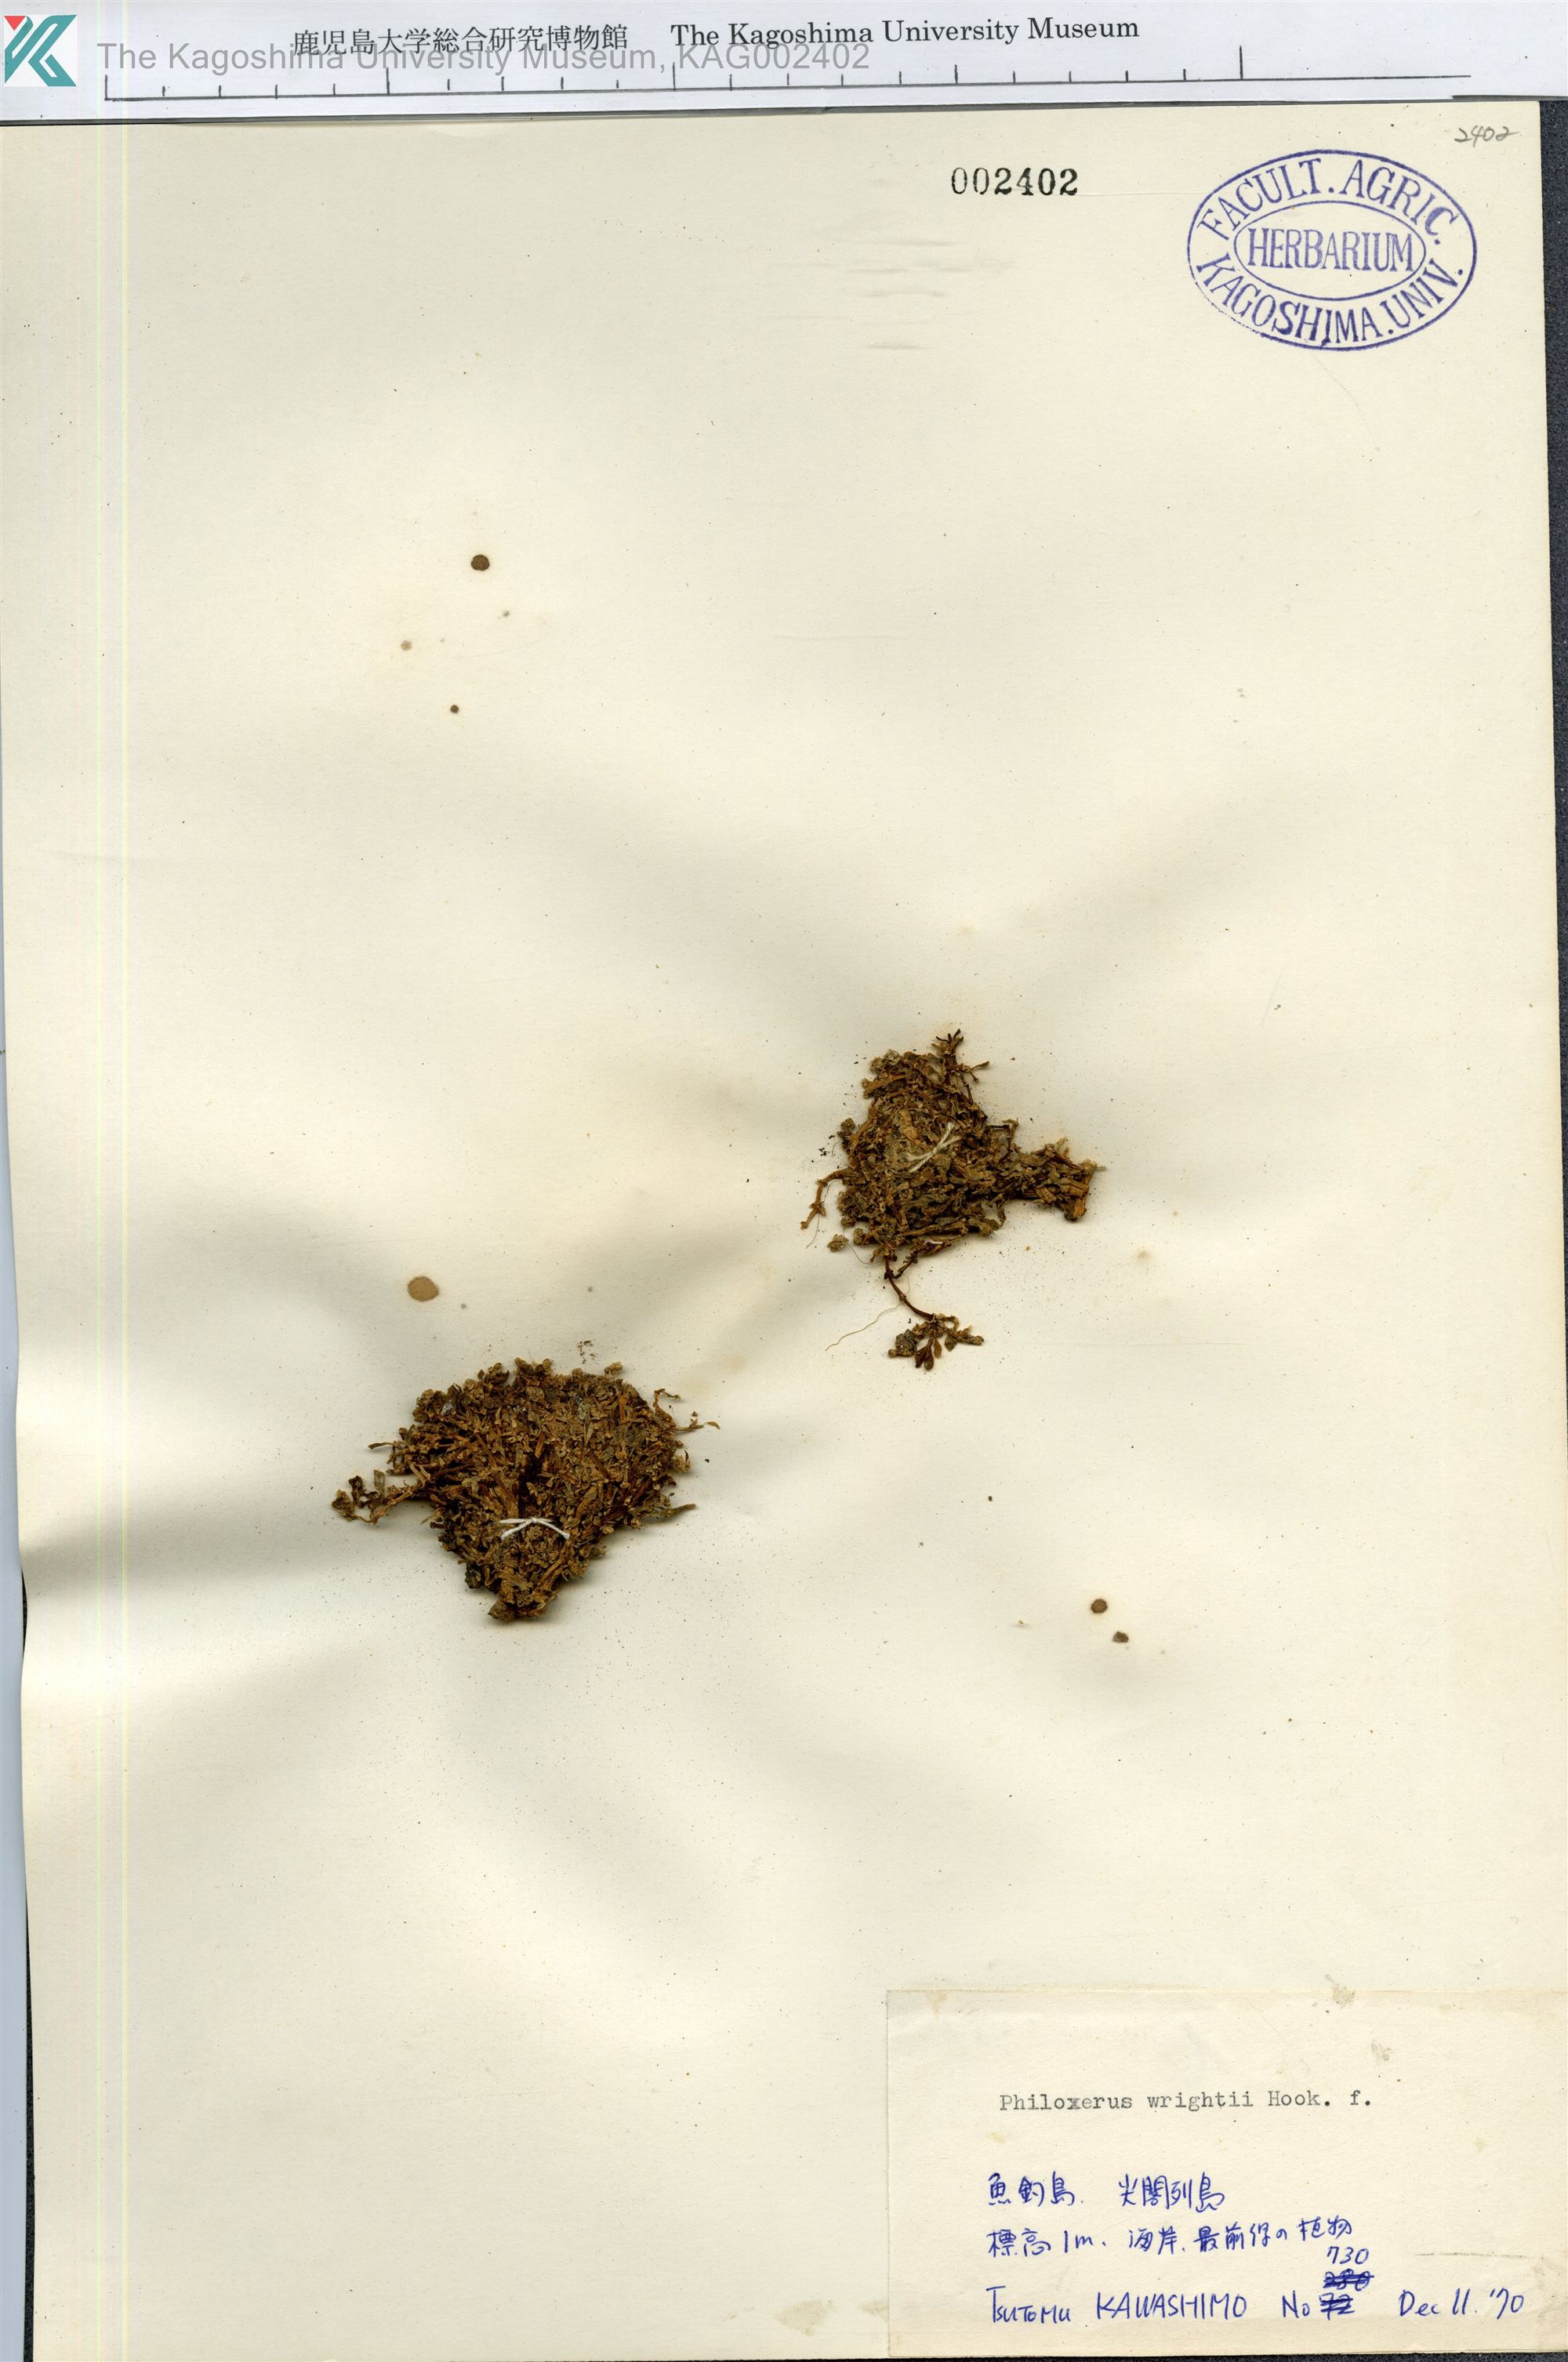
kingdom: Plantae
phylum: Tracheophyta
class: Magnoliopsida
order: Caryophyllales
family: Amaranthaceae
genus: Gomphrena
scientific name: Gomphrena wrightii
